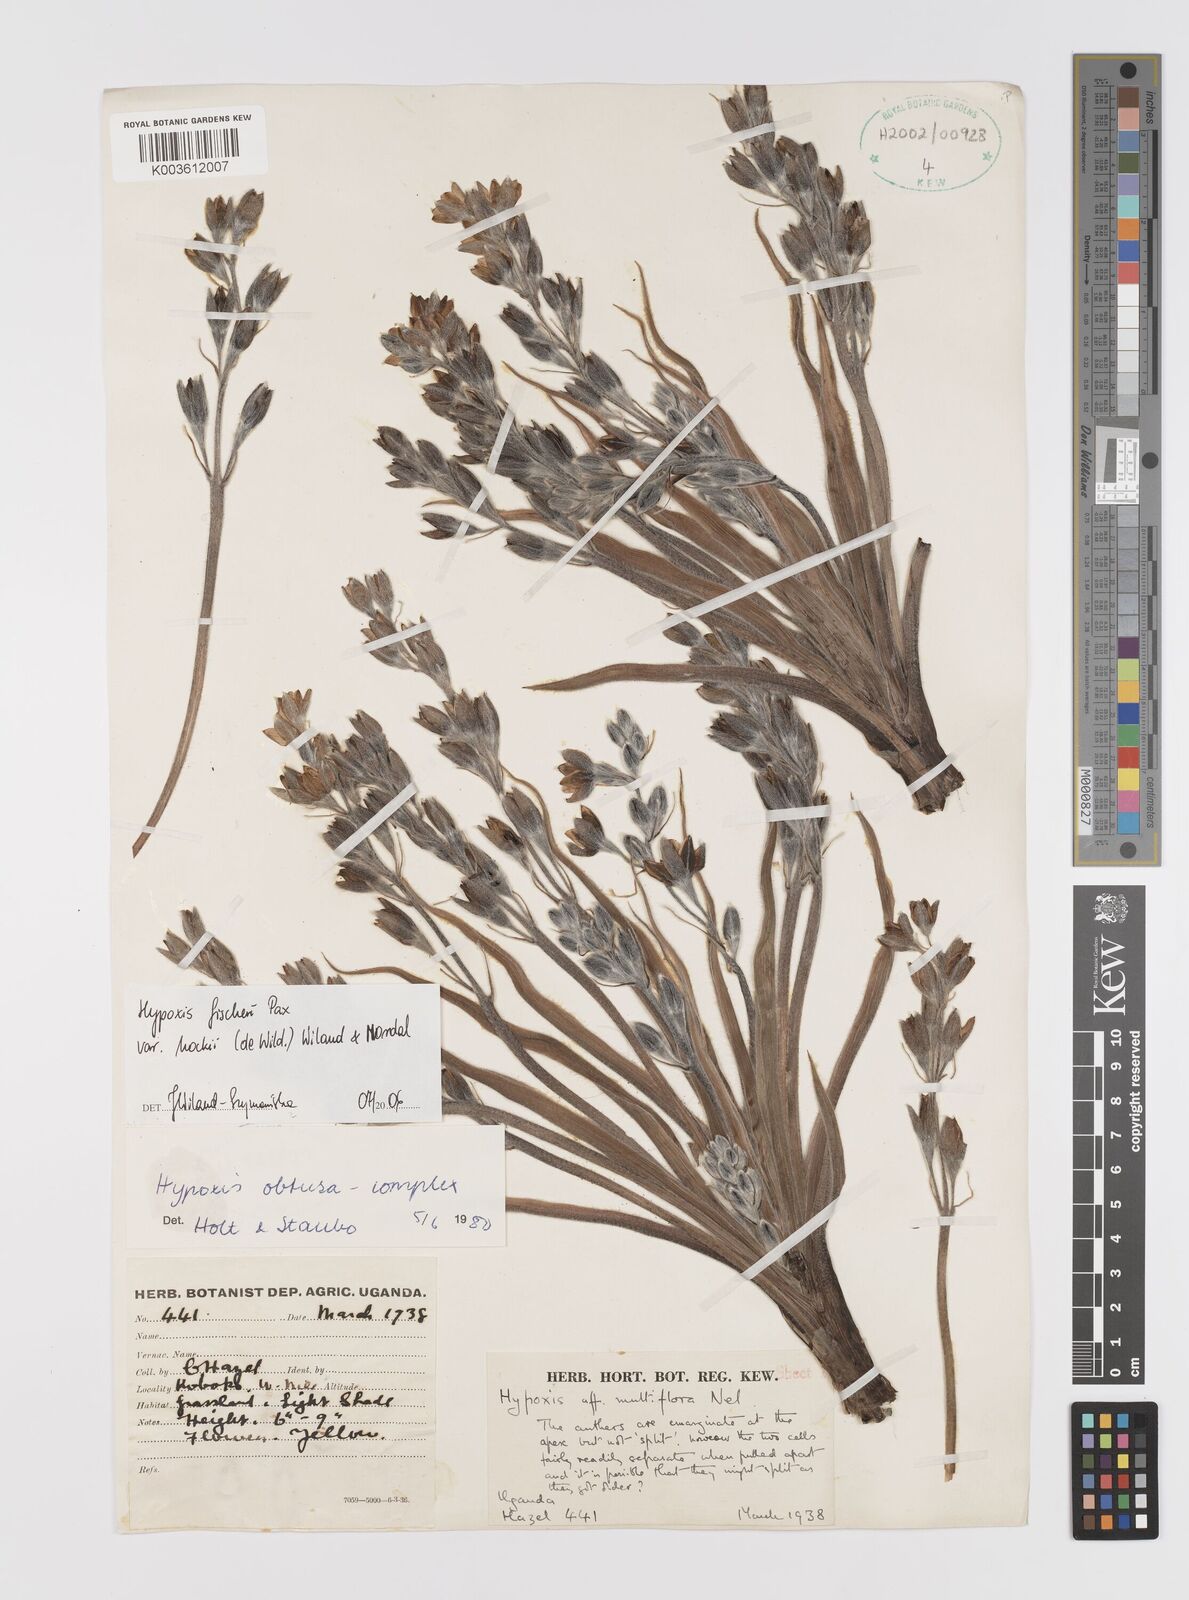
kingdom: Plantae
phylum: Tracheophyta
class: Liliopsida
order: Asparagales
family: Hypoxidaceae
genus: Hypoxis
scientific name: Hypoxis fischeri
